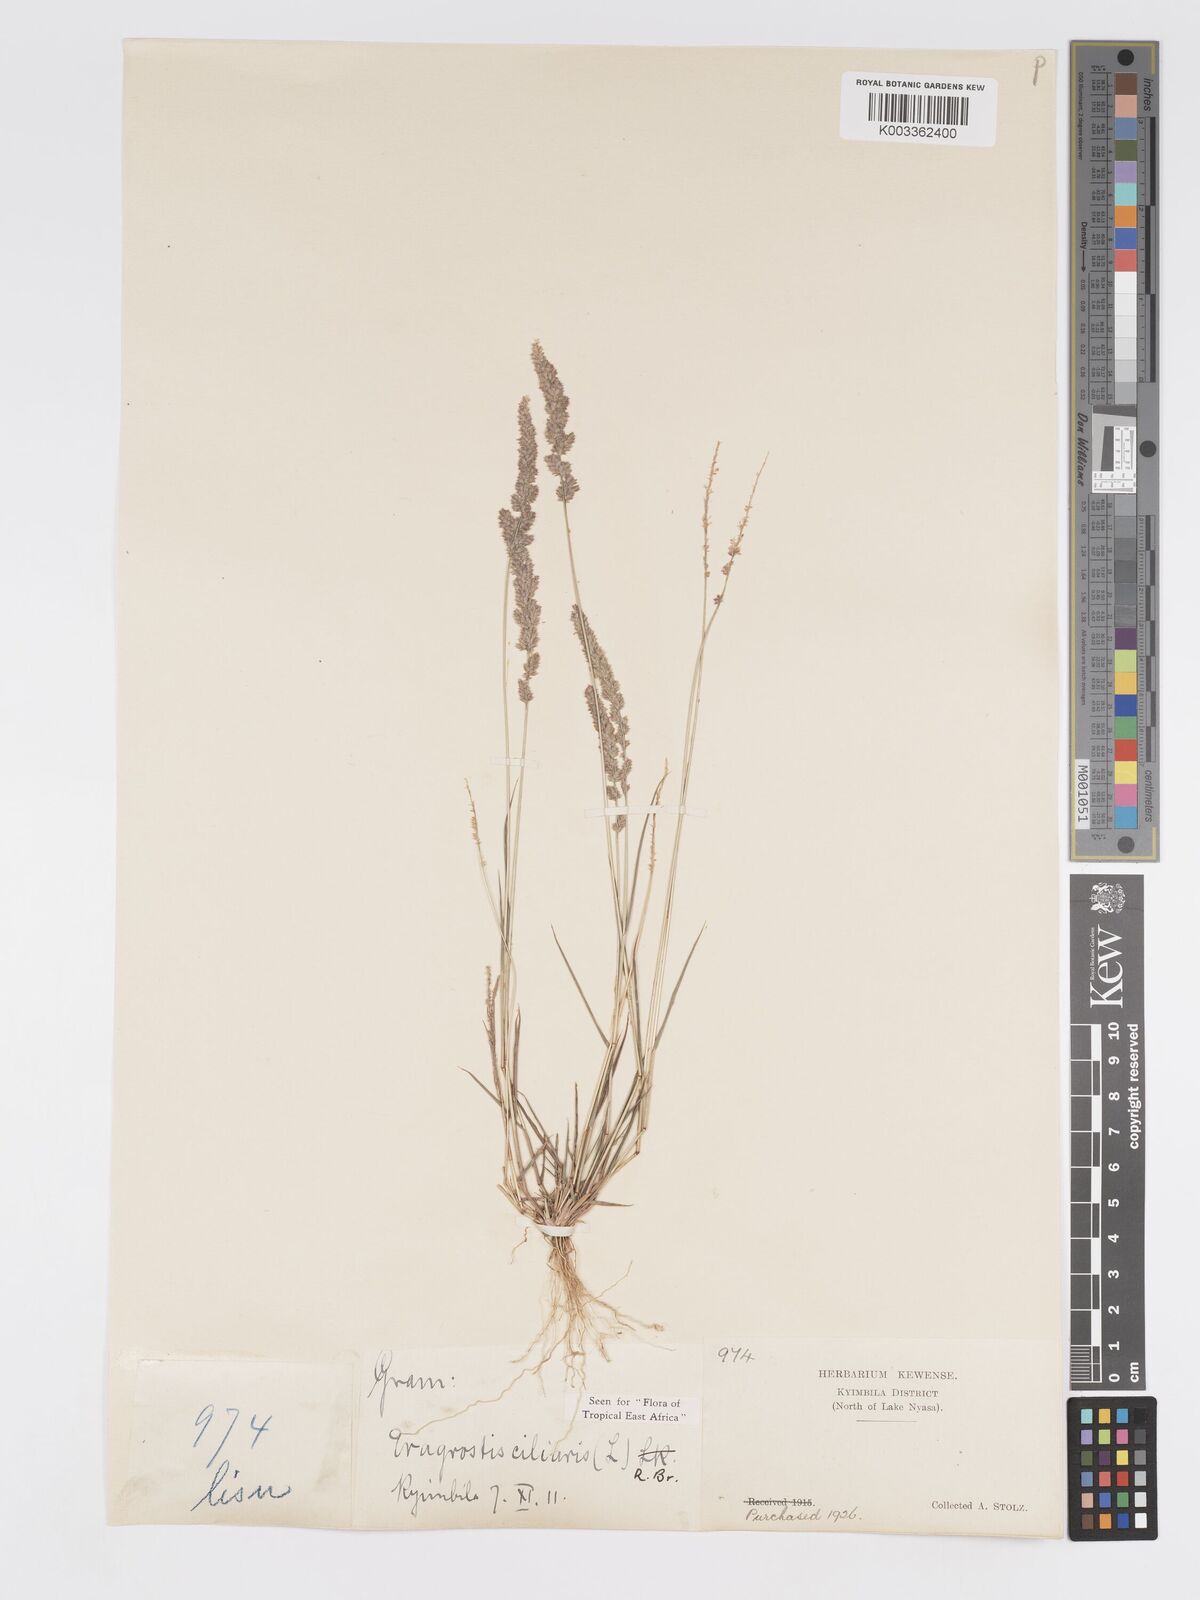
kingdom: Plantae
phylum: Tracheophyta
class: Liliopsida
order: Poales
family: Poaceae
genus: Eragrostis
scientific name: Eragrostis ciliaris
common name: Gophertail lovegrass
